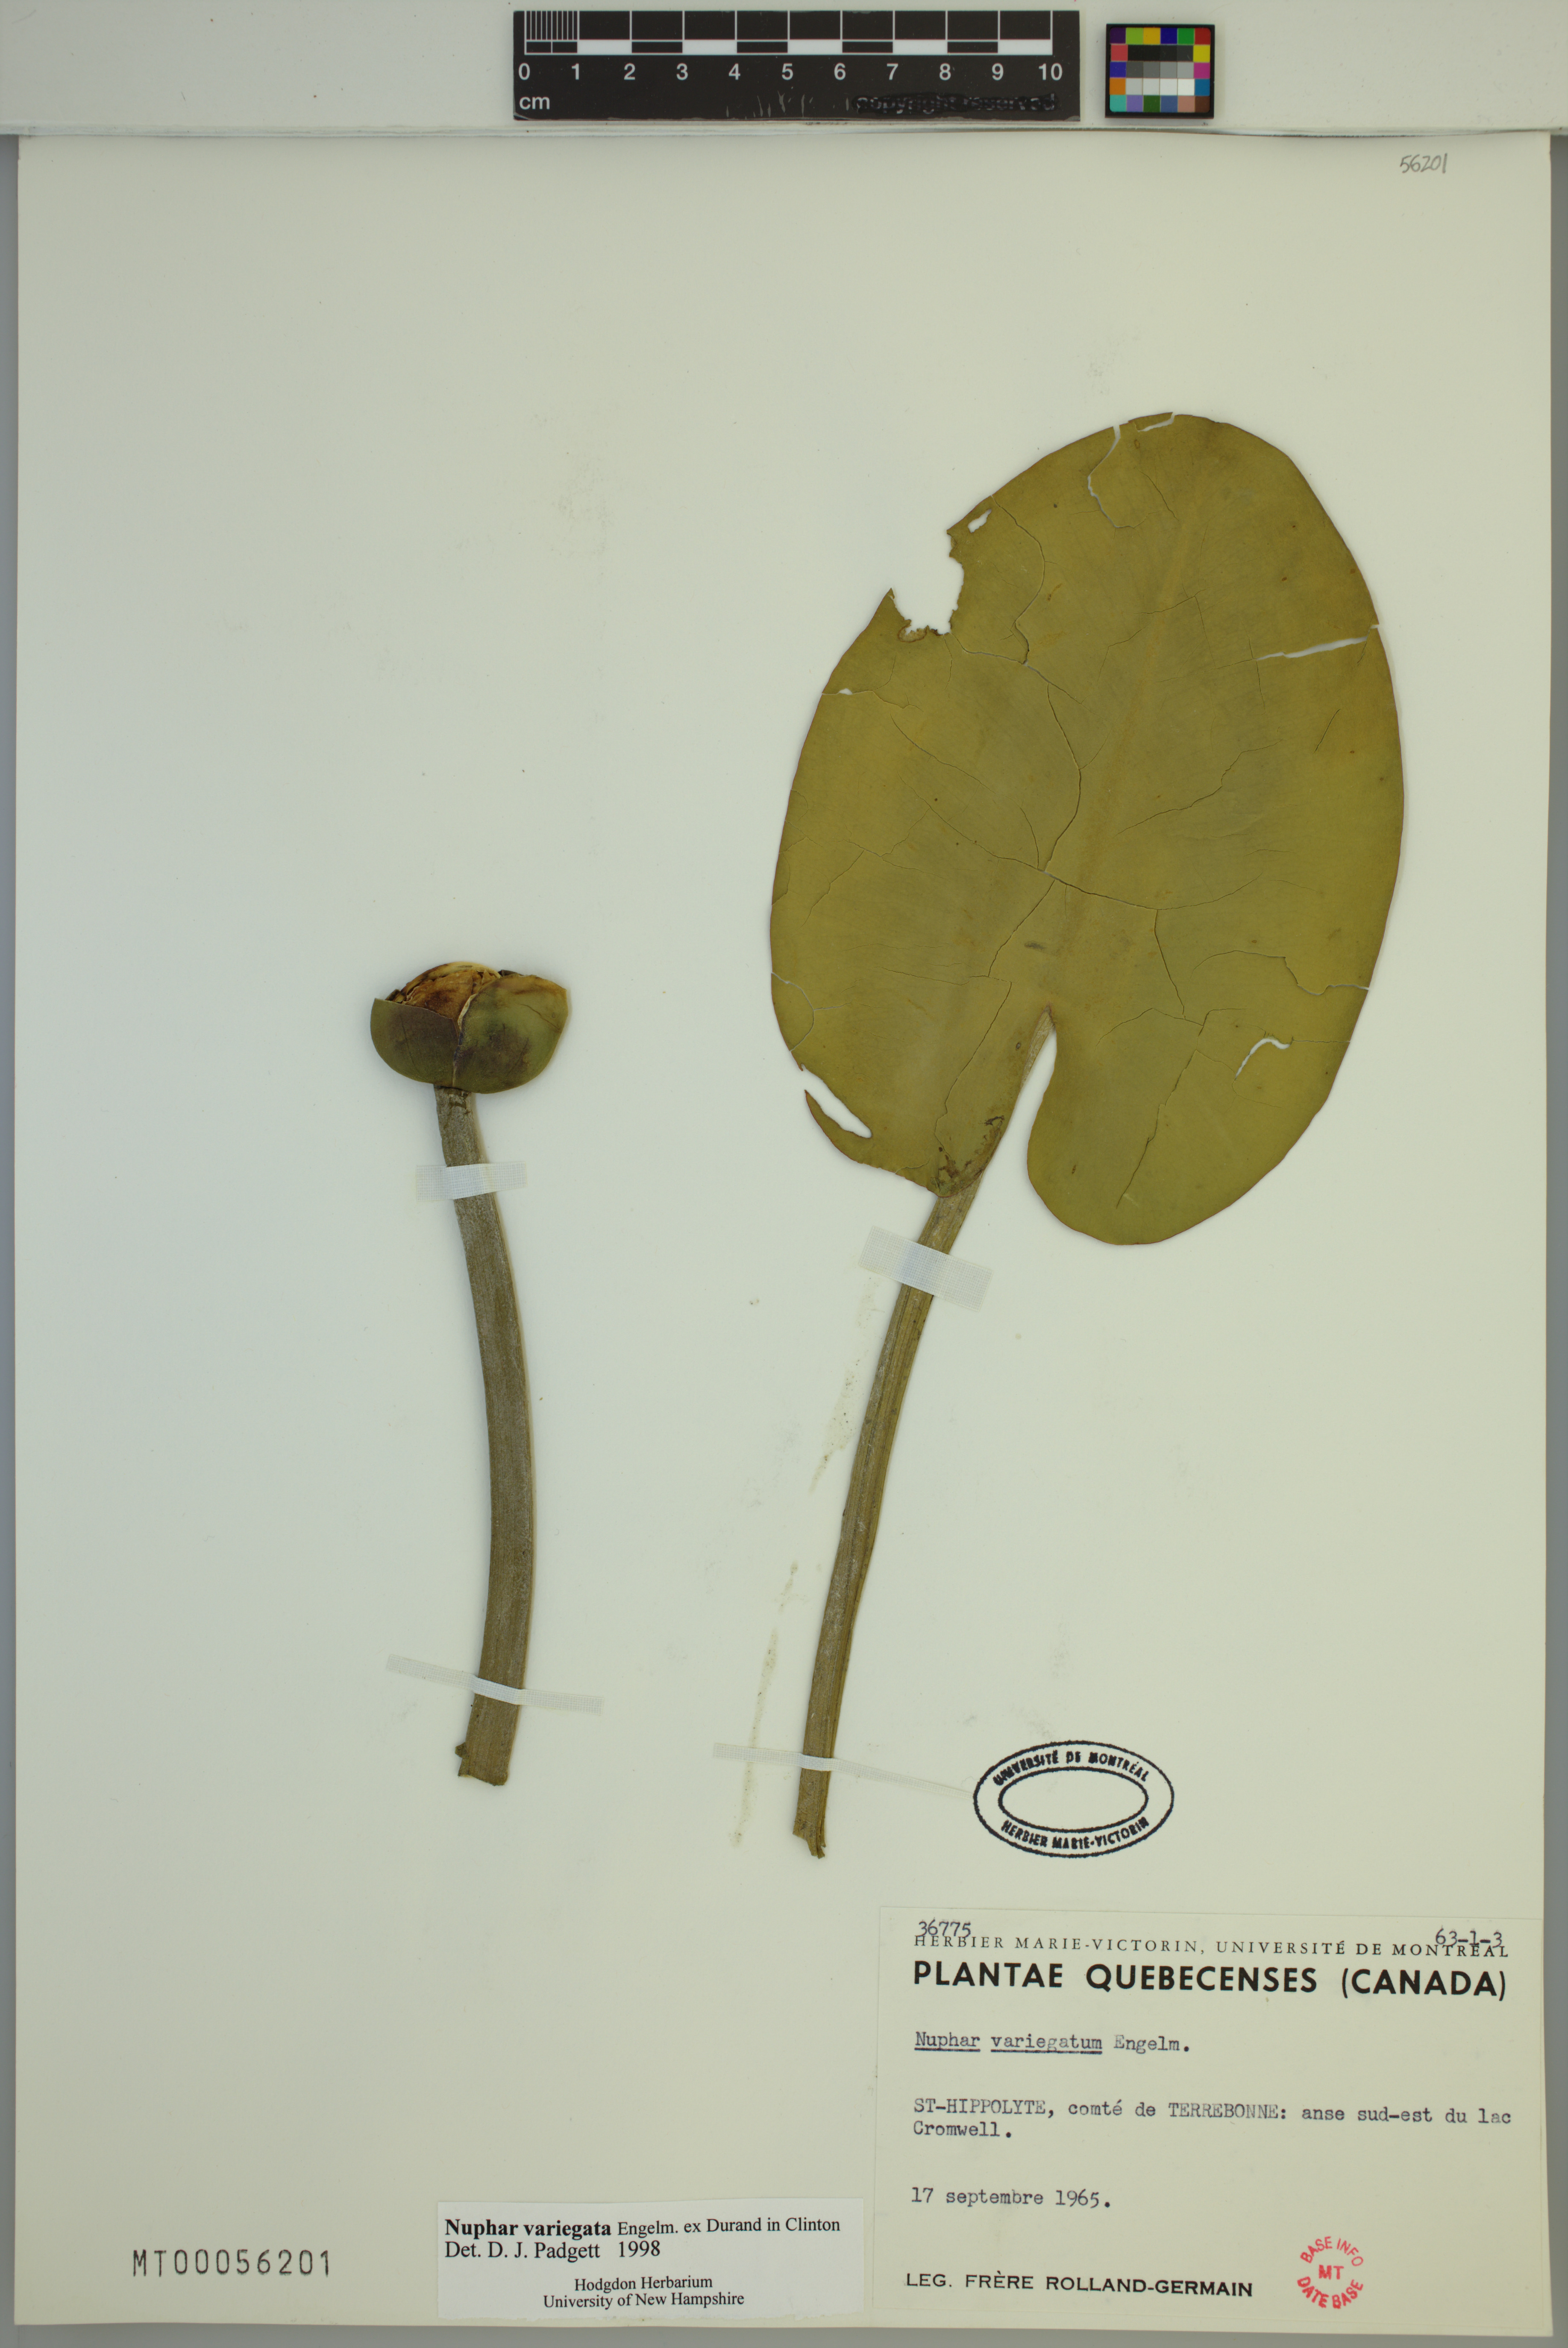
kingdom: Plantae
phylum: Tracheophyta
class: Magnoliopsida
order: Nymphaeales
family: Nymphaeaceae
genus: Nuphar
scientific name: Nuphar variegata
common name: Beaver-root
